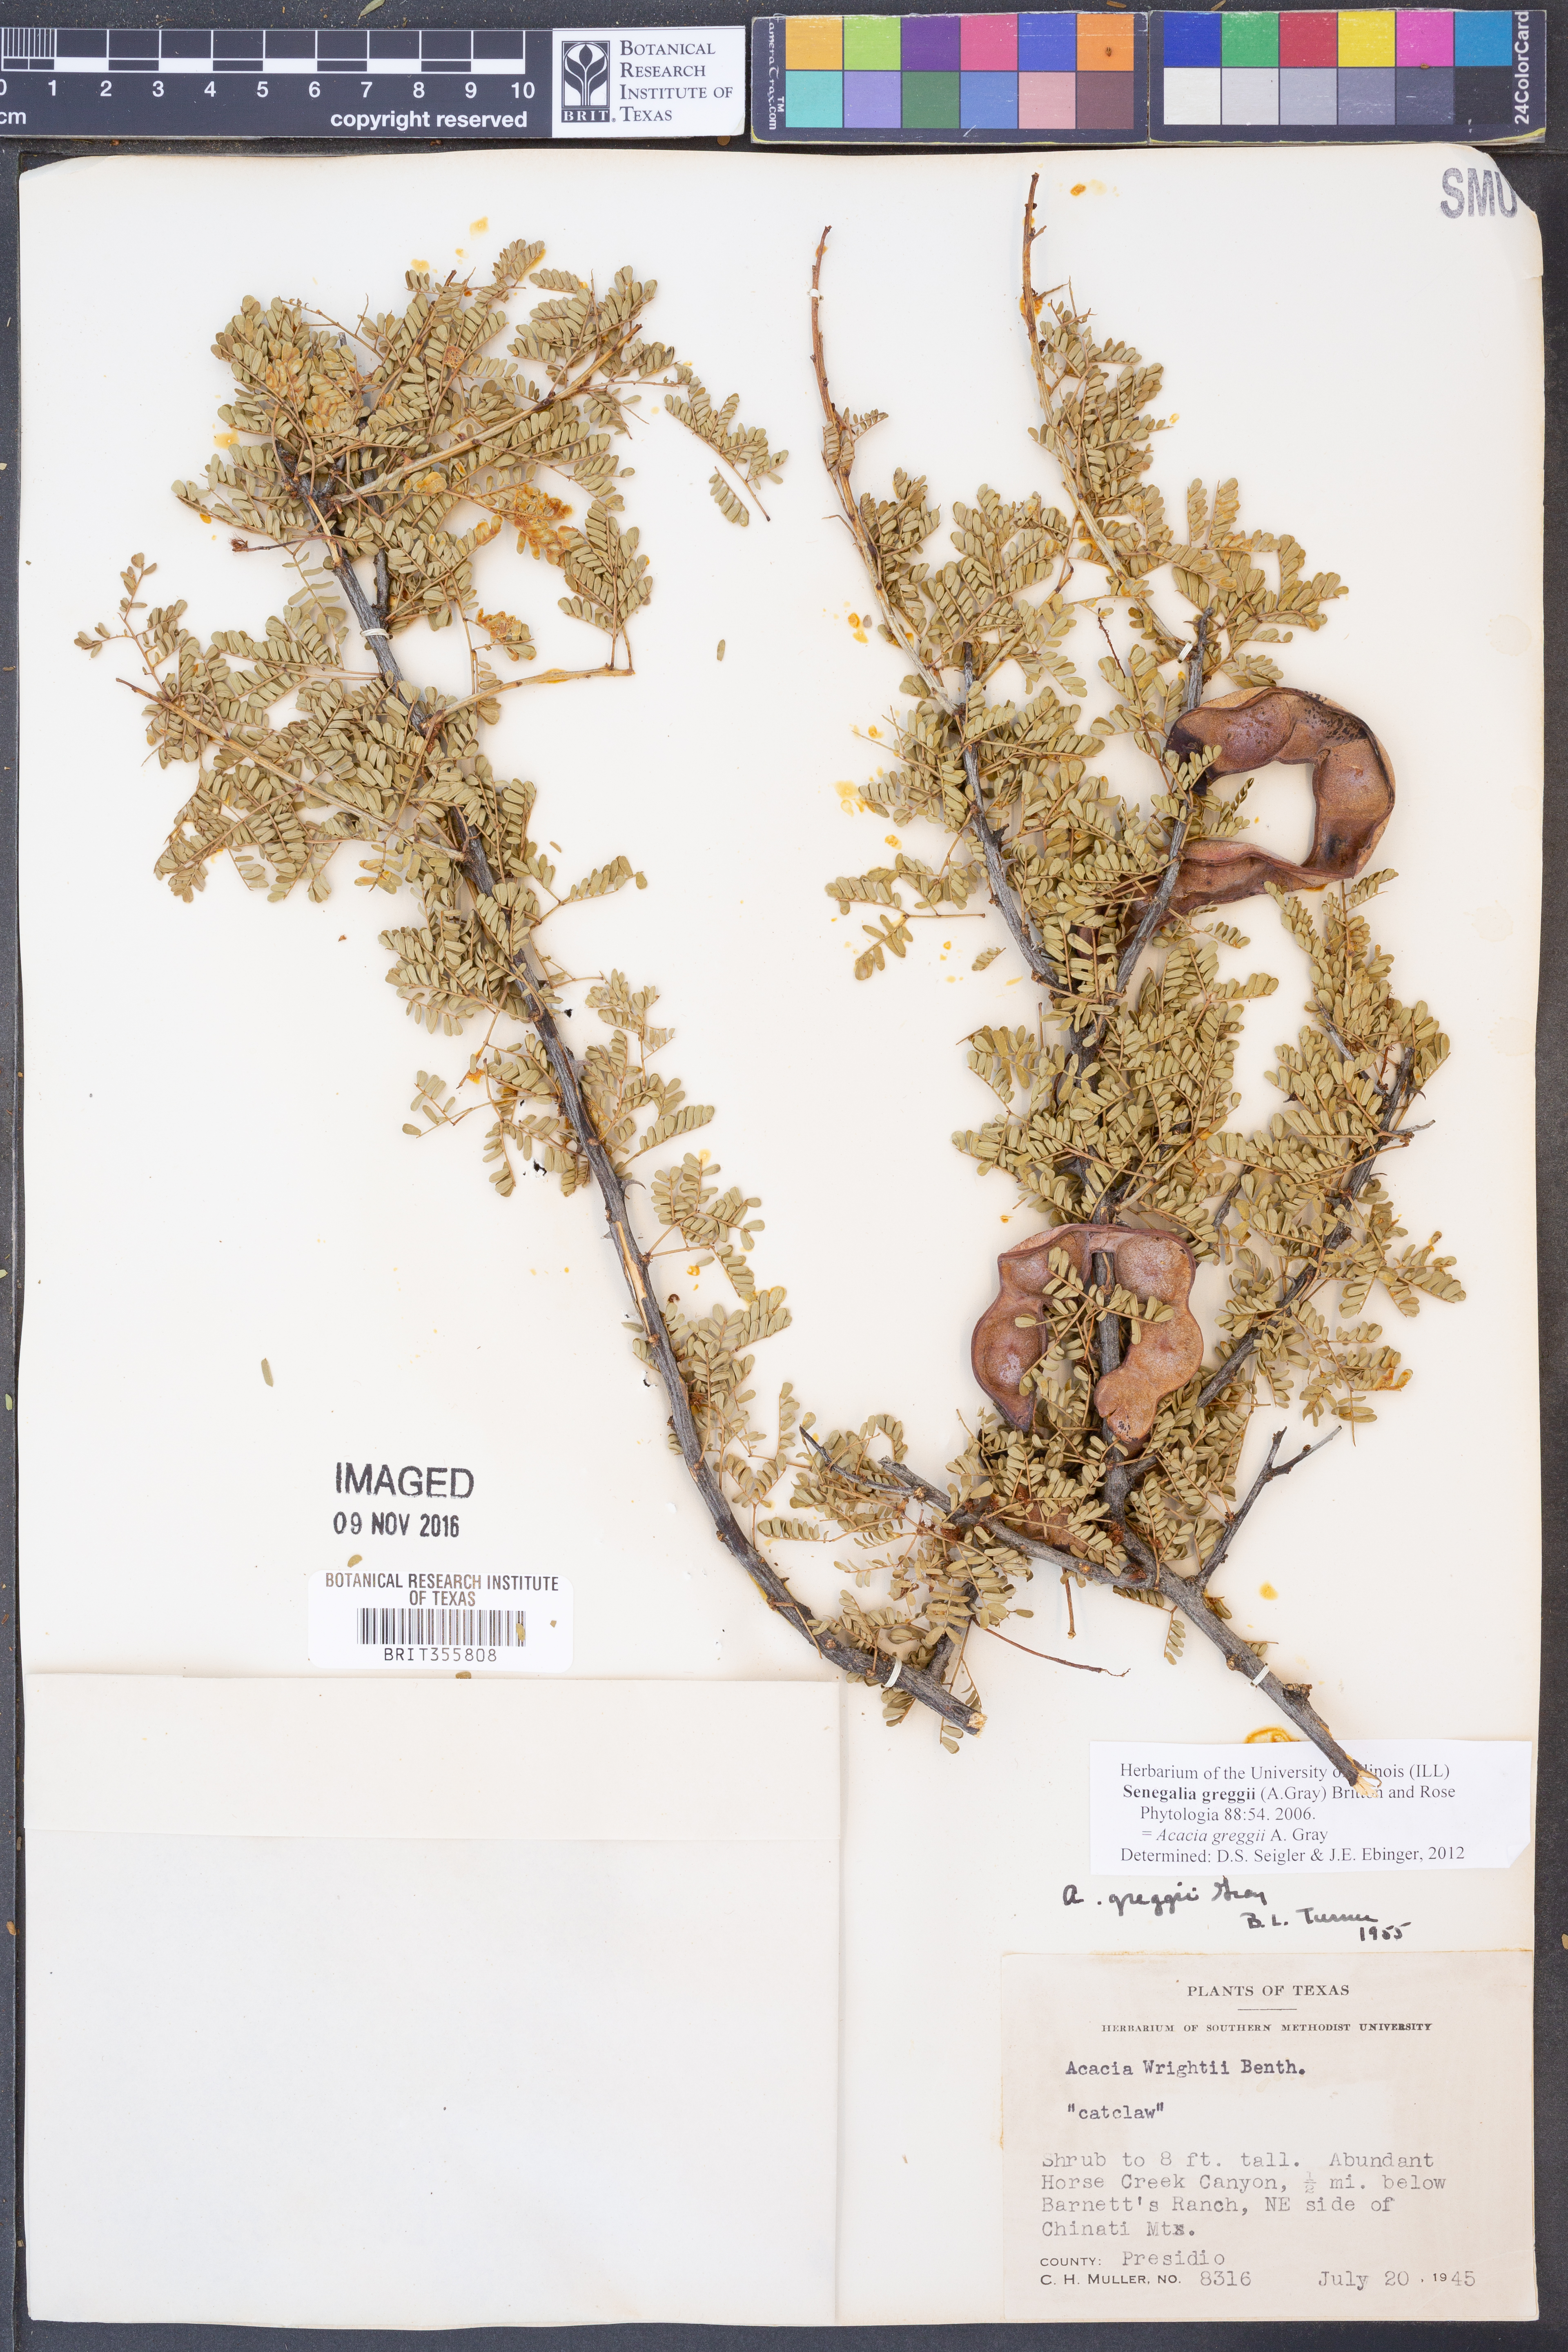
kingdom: Plantae
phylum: Tracheophyta
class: Magnoliopsida
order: Fabales
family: Fabaceae
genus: Senegalia
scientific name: Senegalia greggii
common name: Texas-mimosa
